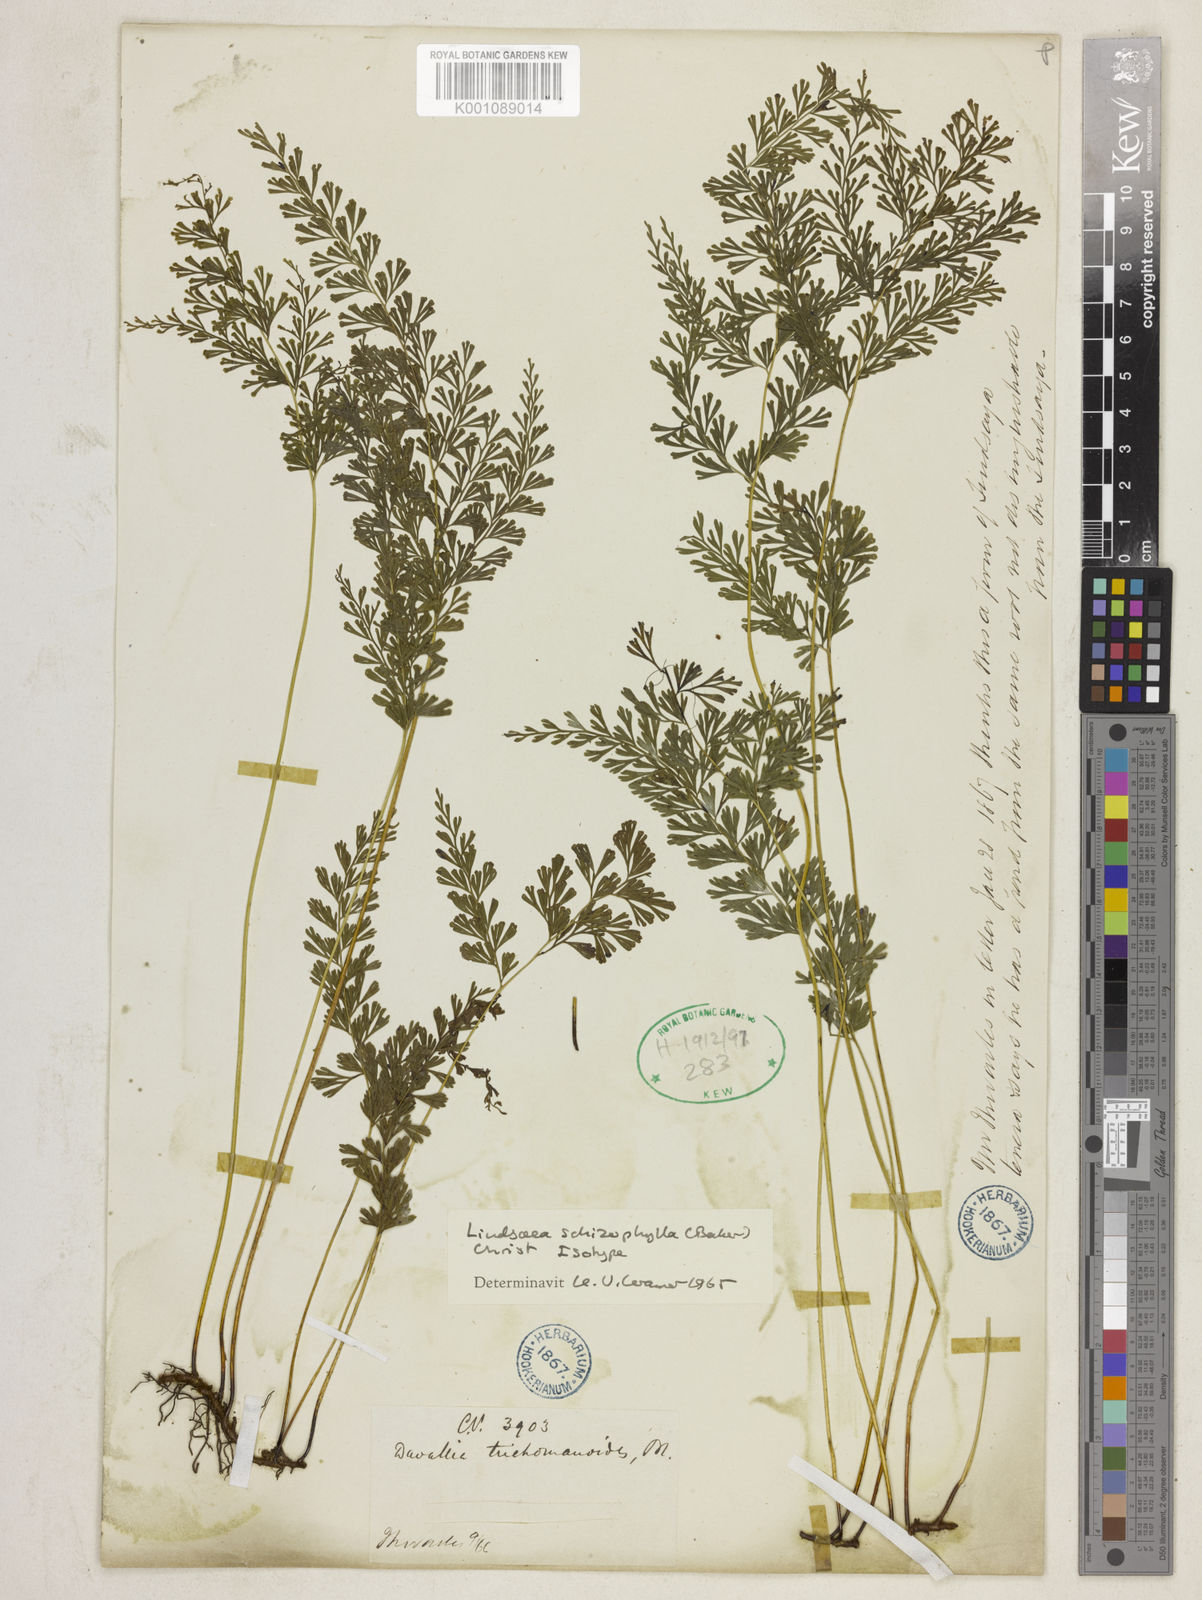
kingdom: Plantae
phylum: Tracheophyta
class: Polypodiopsida
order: Polypodiales
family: Lindsaeaceae
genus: Lindsaea
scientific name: Lindsaea schizophylla
